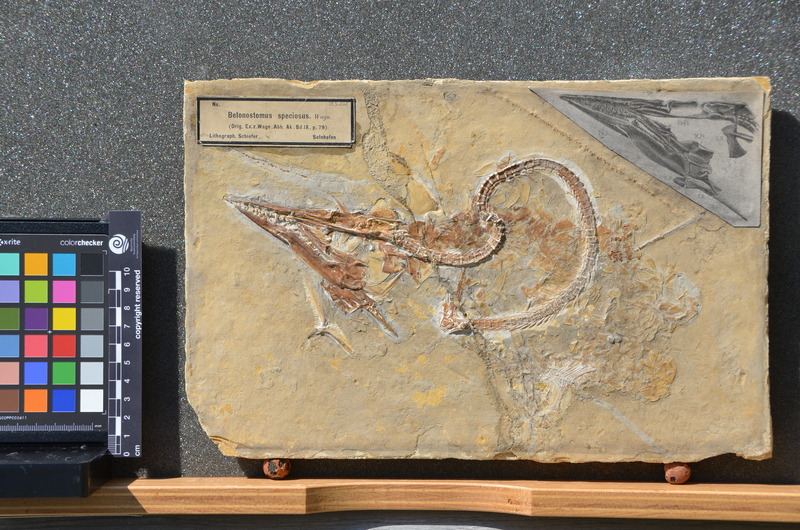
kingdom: Animalia
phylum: Chordata
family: Aspidorhynchidae
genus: Belonostomus
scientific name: Belonostomus muensteri
